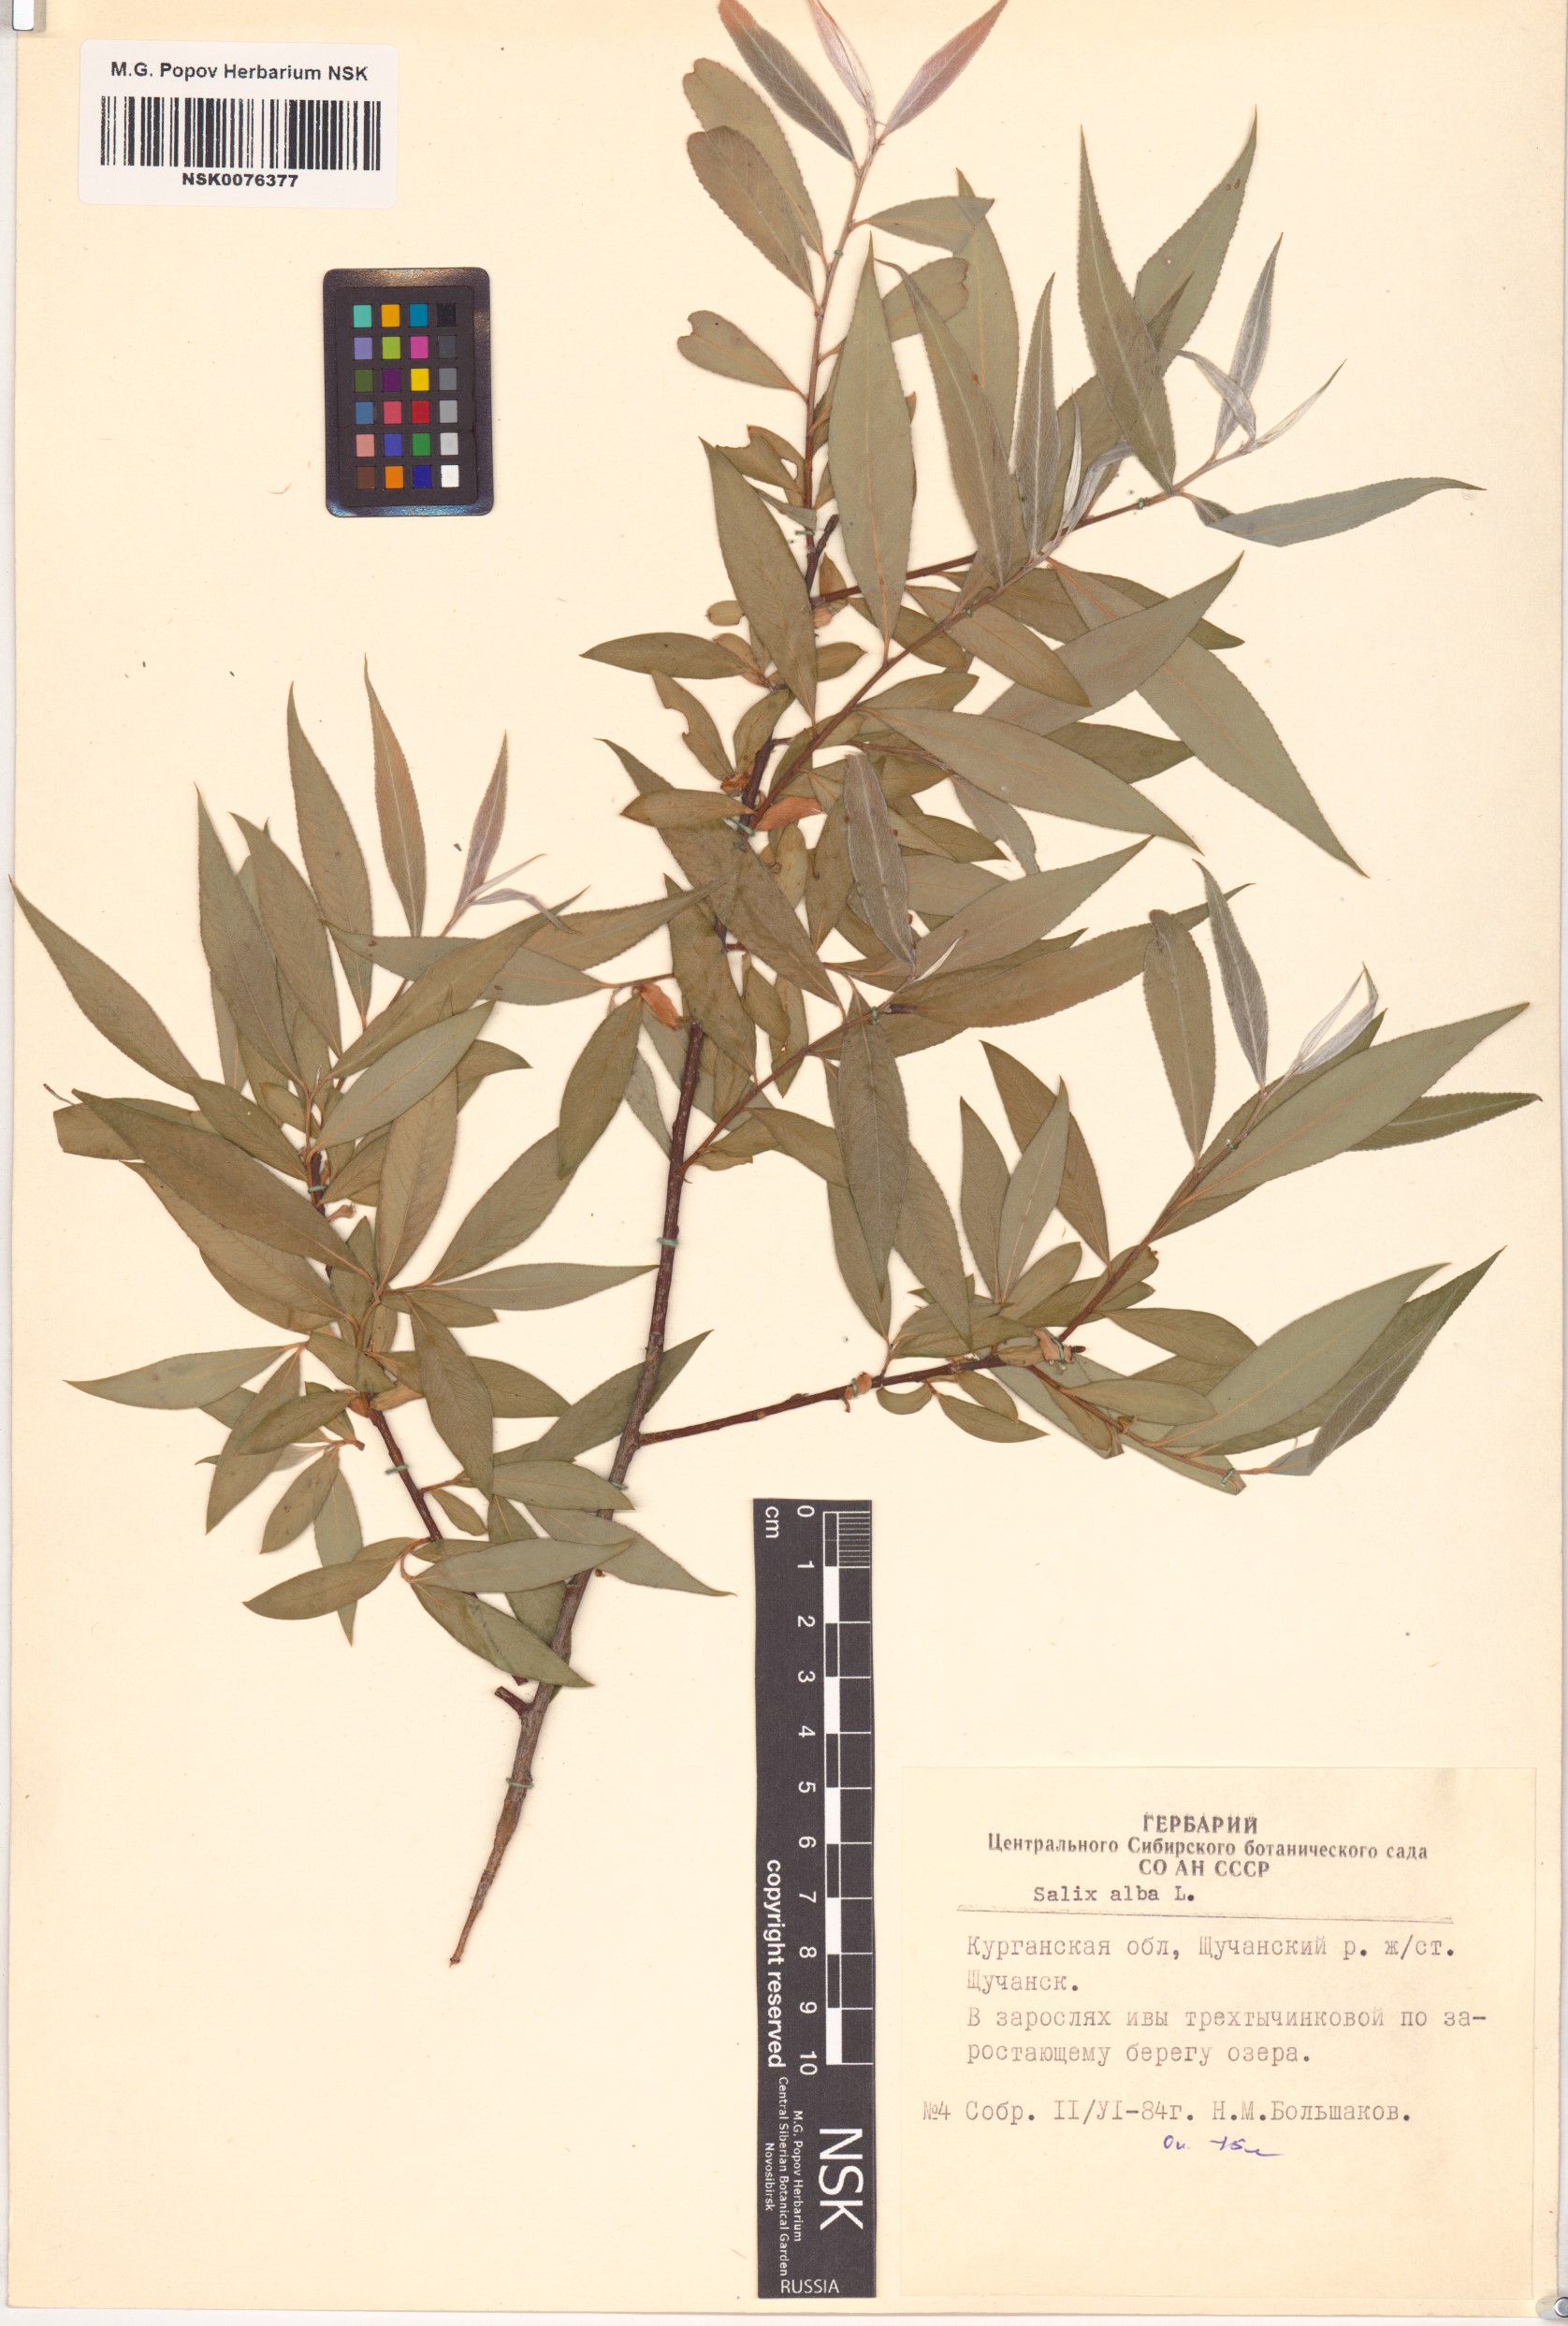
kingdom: Plantae
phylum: Tracheophyta
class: Magnoliopsida
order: Malpighiales
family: Salicaceae
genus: Salix
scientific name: Salix alba
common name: White willow
